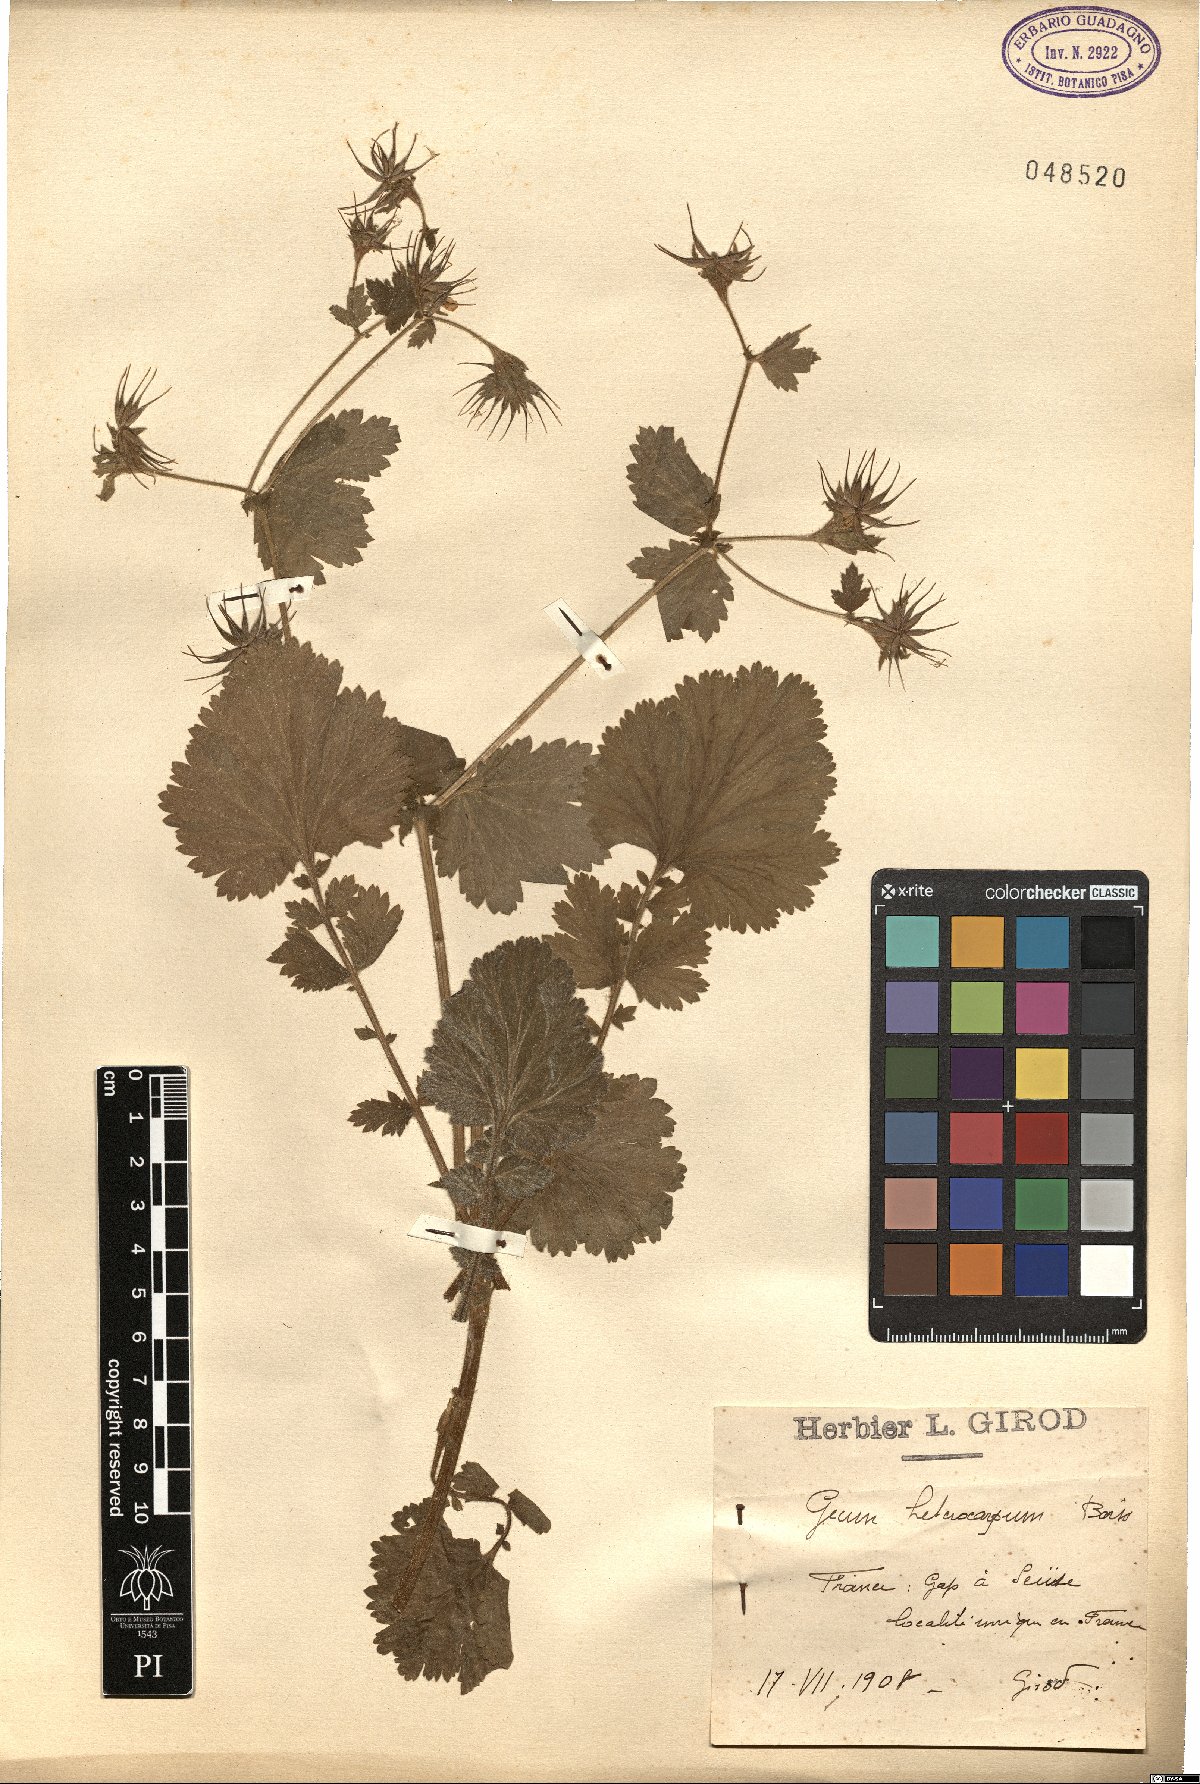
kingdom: Plantae
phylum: Tracheophyta
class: Magnoliopsida
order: Rosales
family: Rosaceae
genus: Geum
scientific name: Geum heterocarpum
